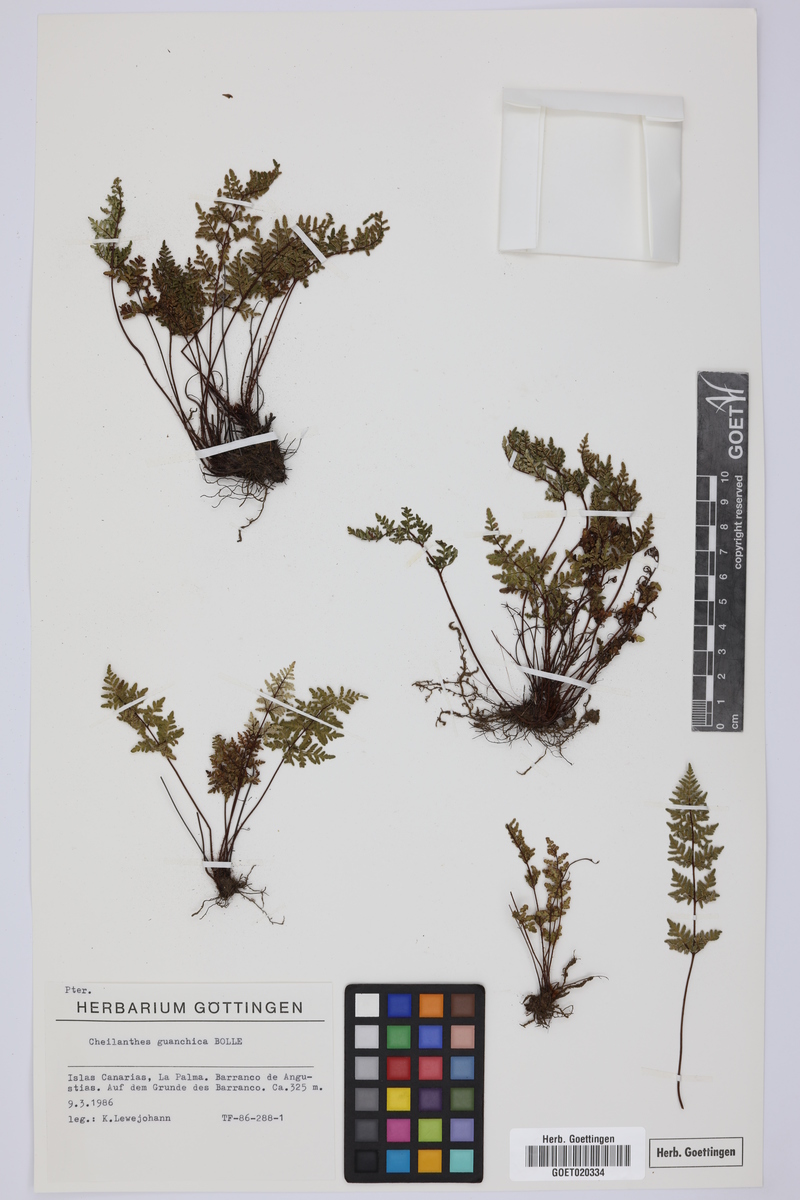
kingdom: Plantae
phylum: Tracheophyta
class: Polypodiopsida
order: Polypodiales
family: Pteridaceae
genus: Oeosporangium
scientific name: Oeosporangium guanchicum
